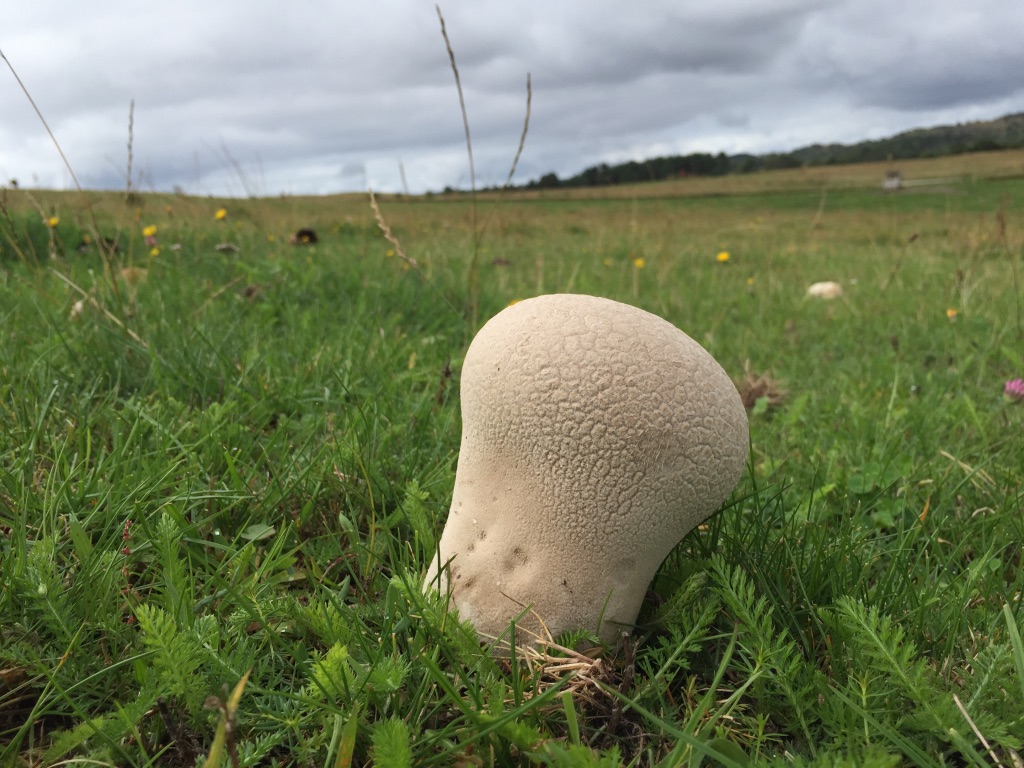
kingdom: Fungi
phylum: Basidiomycota
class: Agaricomycetes
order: Agaricales
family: Lycoperdaceae
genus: Bovistella
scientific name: Bovistella utriformis
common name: skællet støvbold
